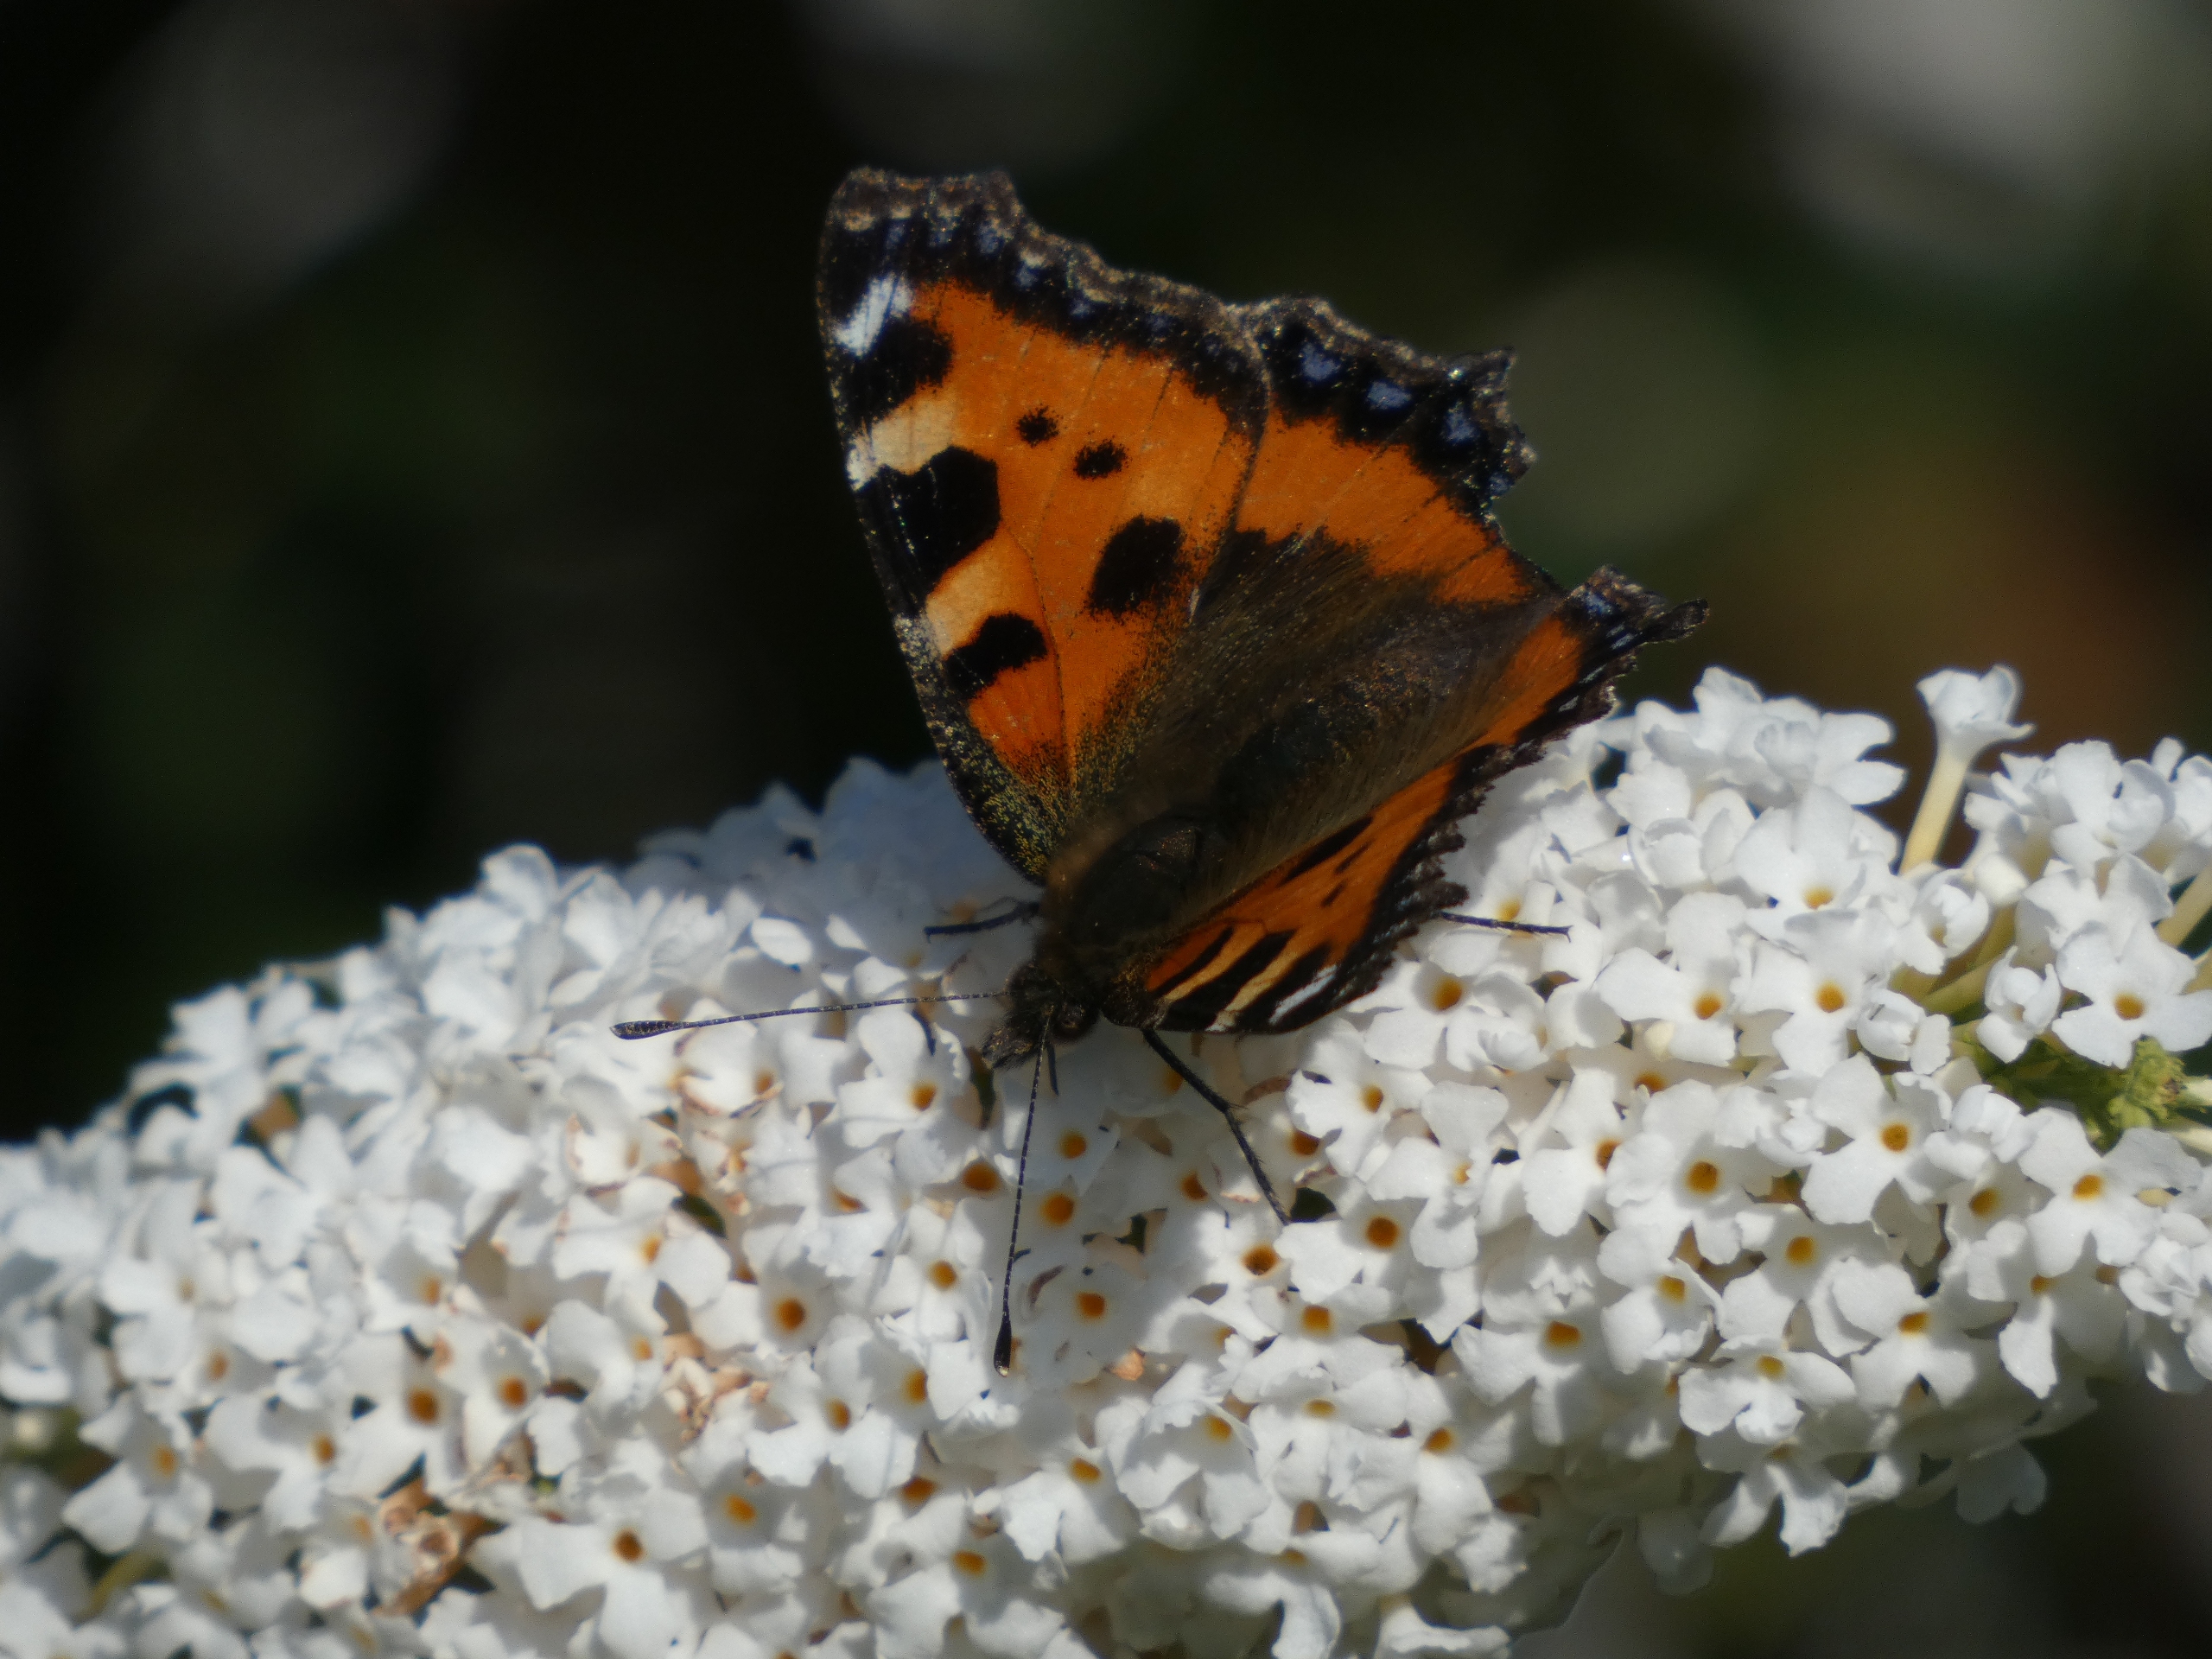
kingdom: Animalia
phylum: Arthropoda
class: Insecta
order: Lepidoptera
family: Nymphalidae
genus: Aglais
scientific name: Aglais urticae
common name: Nældens takvinge
